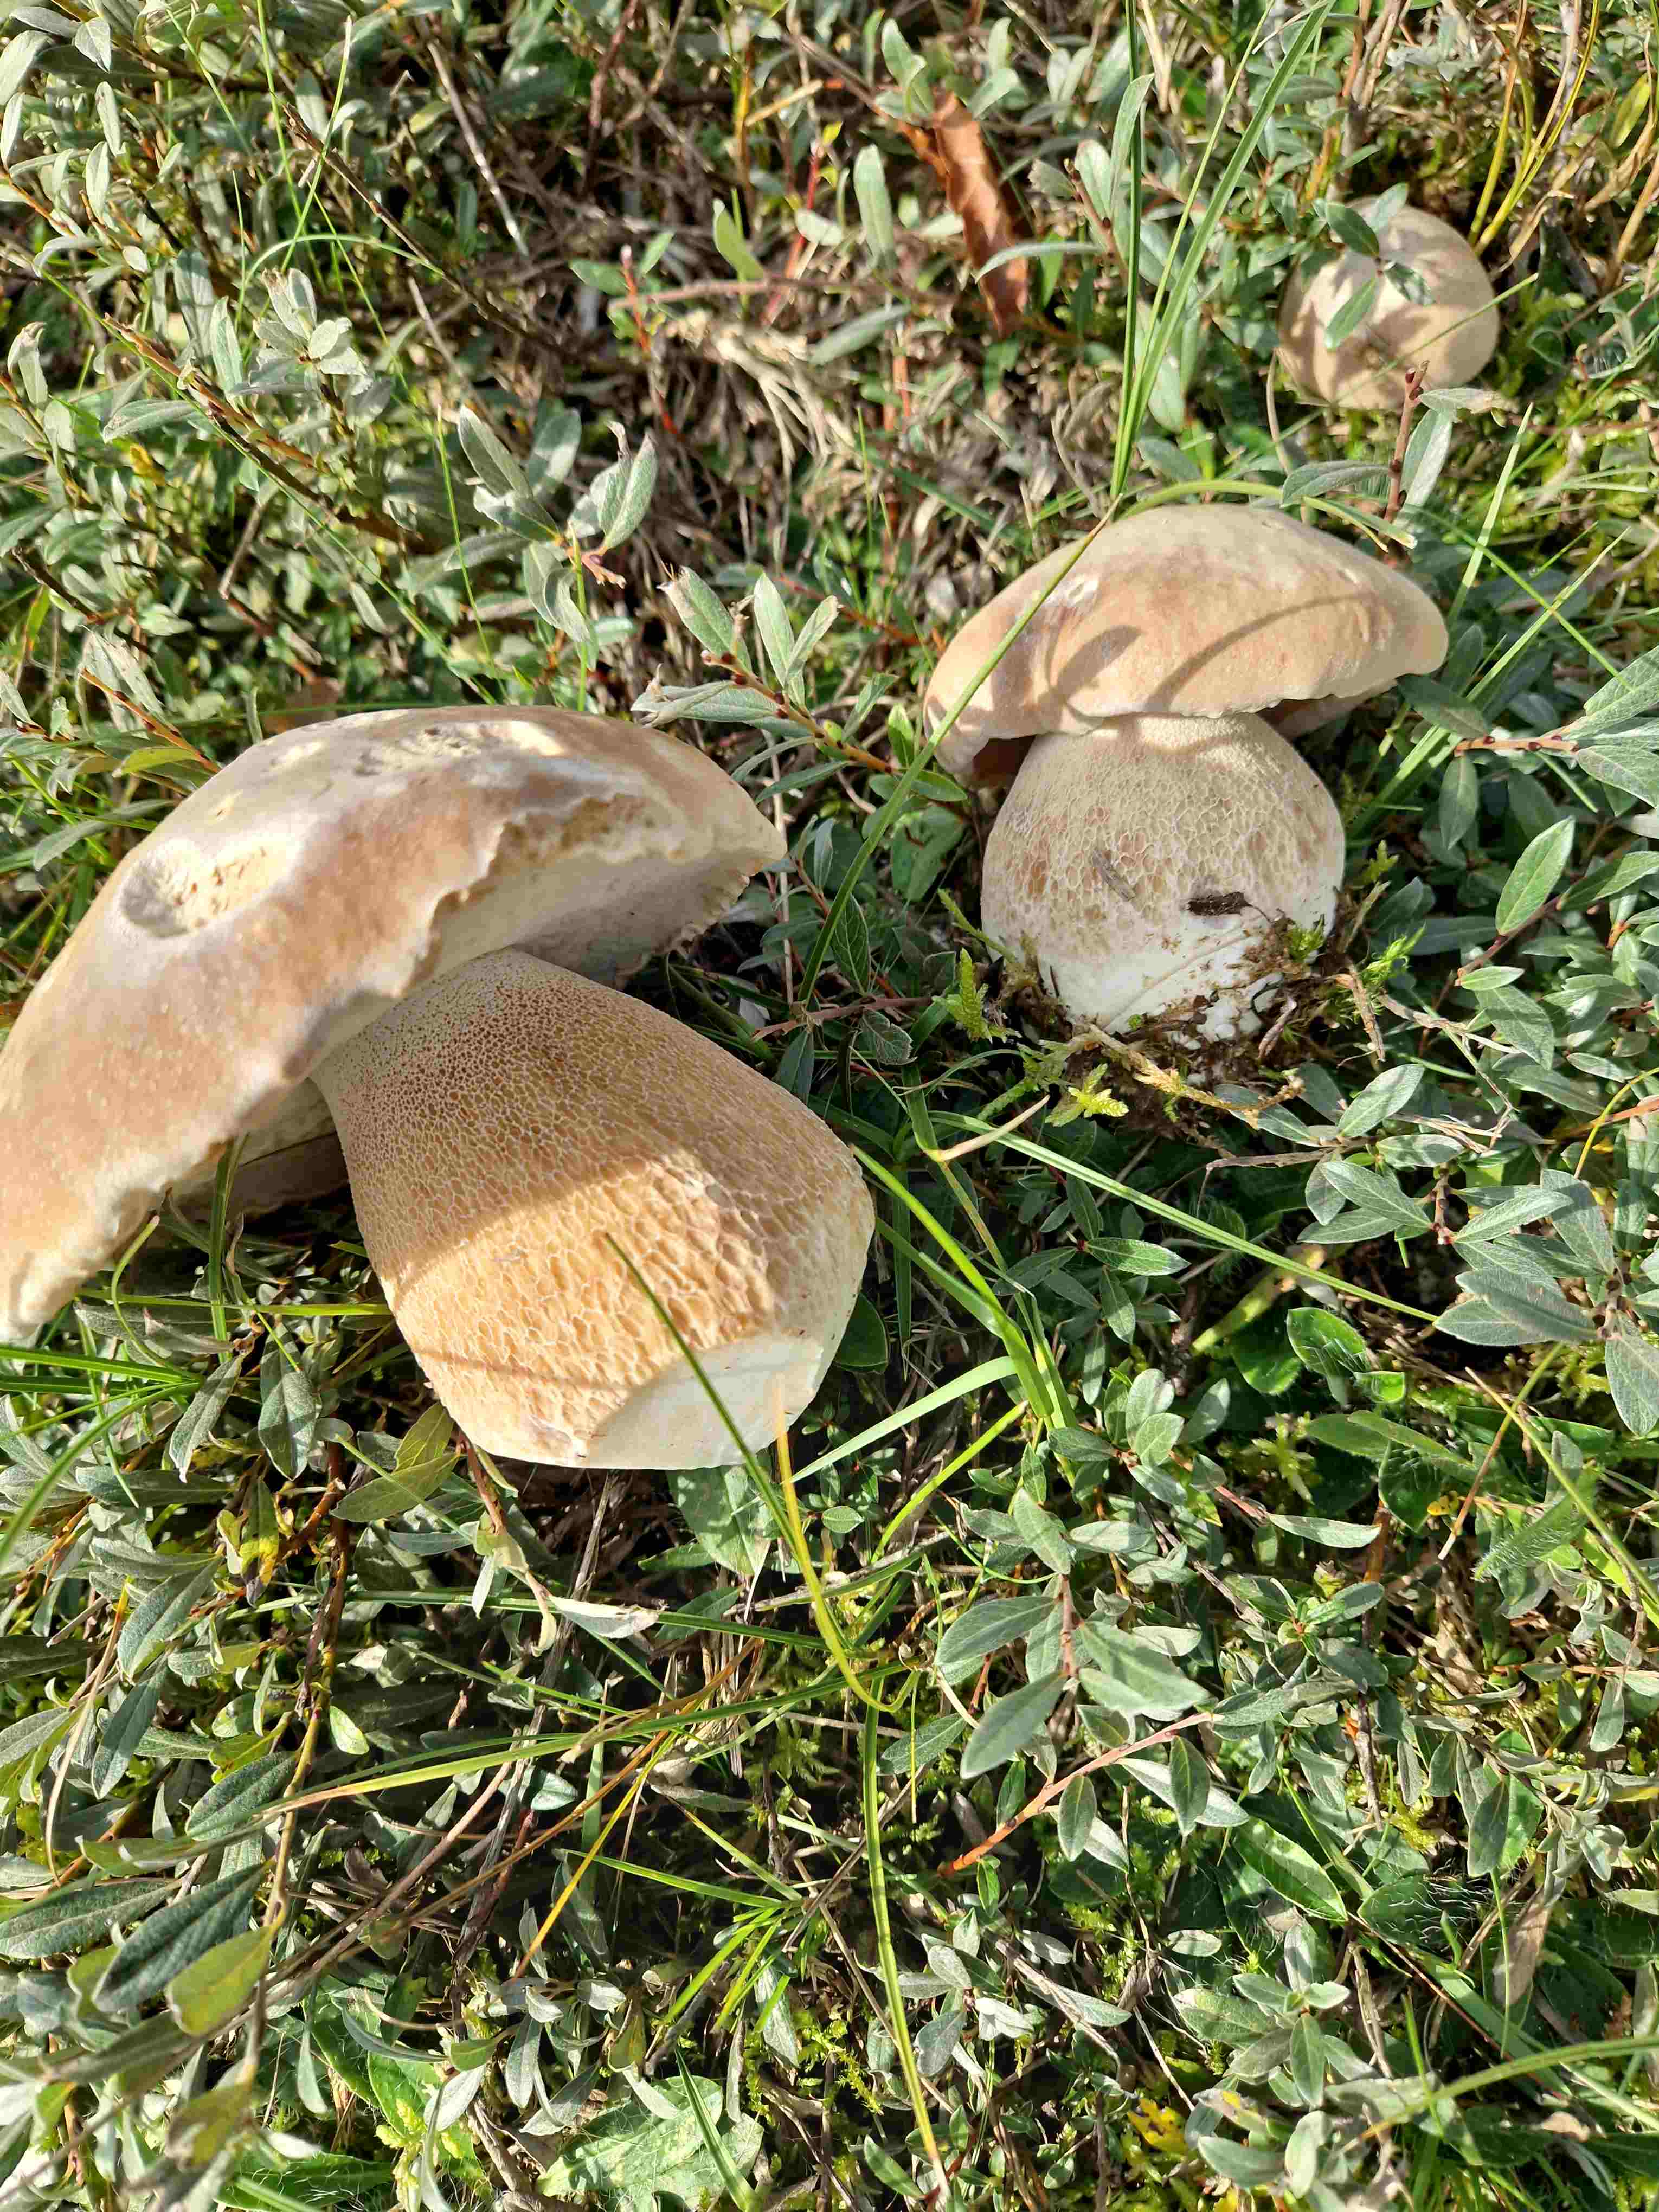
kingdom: Fungi
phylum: Basidiomycota
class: Agaricomycetes
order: Boletales
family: Boletaceae
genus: Boletus
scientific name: Boletus reticulatus
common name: sommer-rørhat
